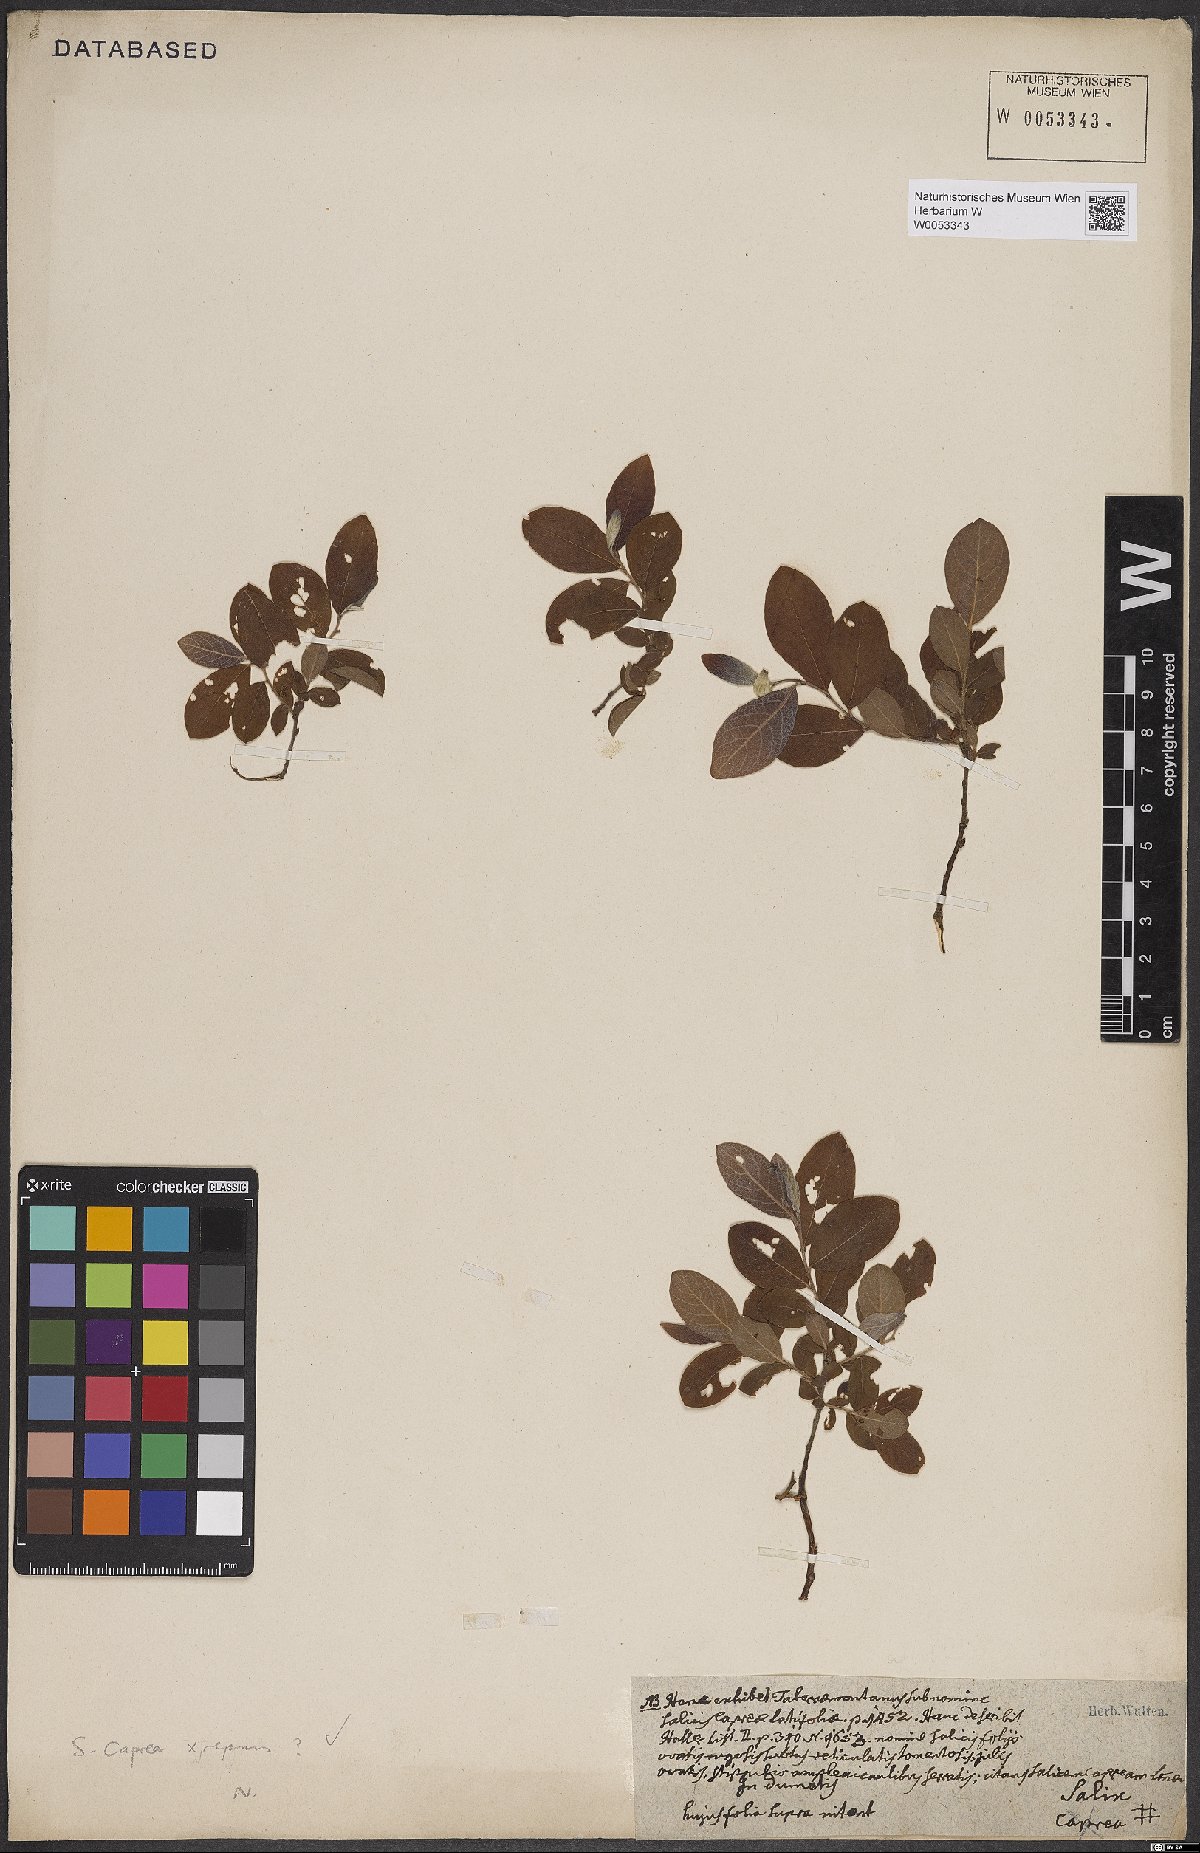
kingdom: Plantae
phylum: Tracheophyta
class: Magnoliopsida
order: Malpighiales
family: Salicaceae
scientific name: Salicaceae
